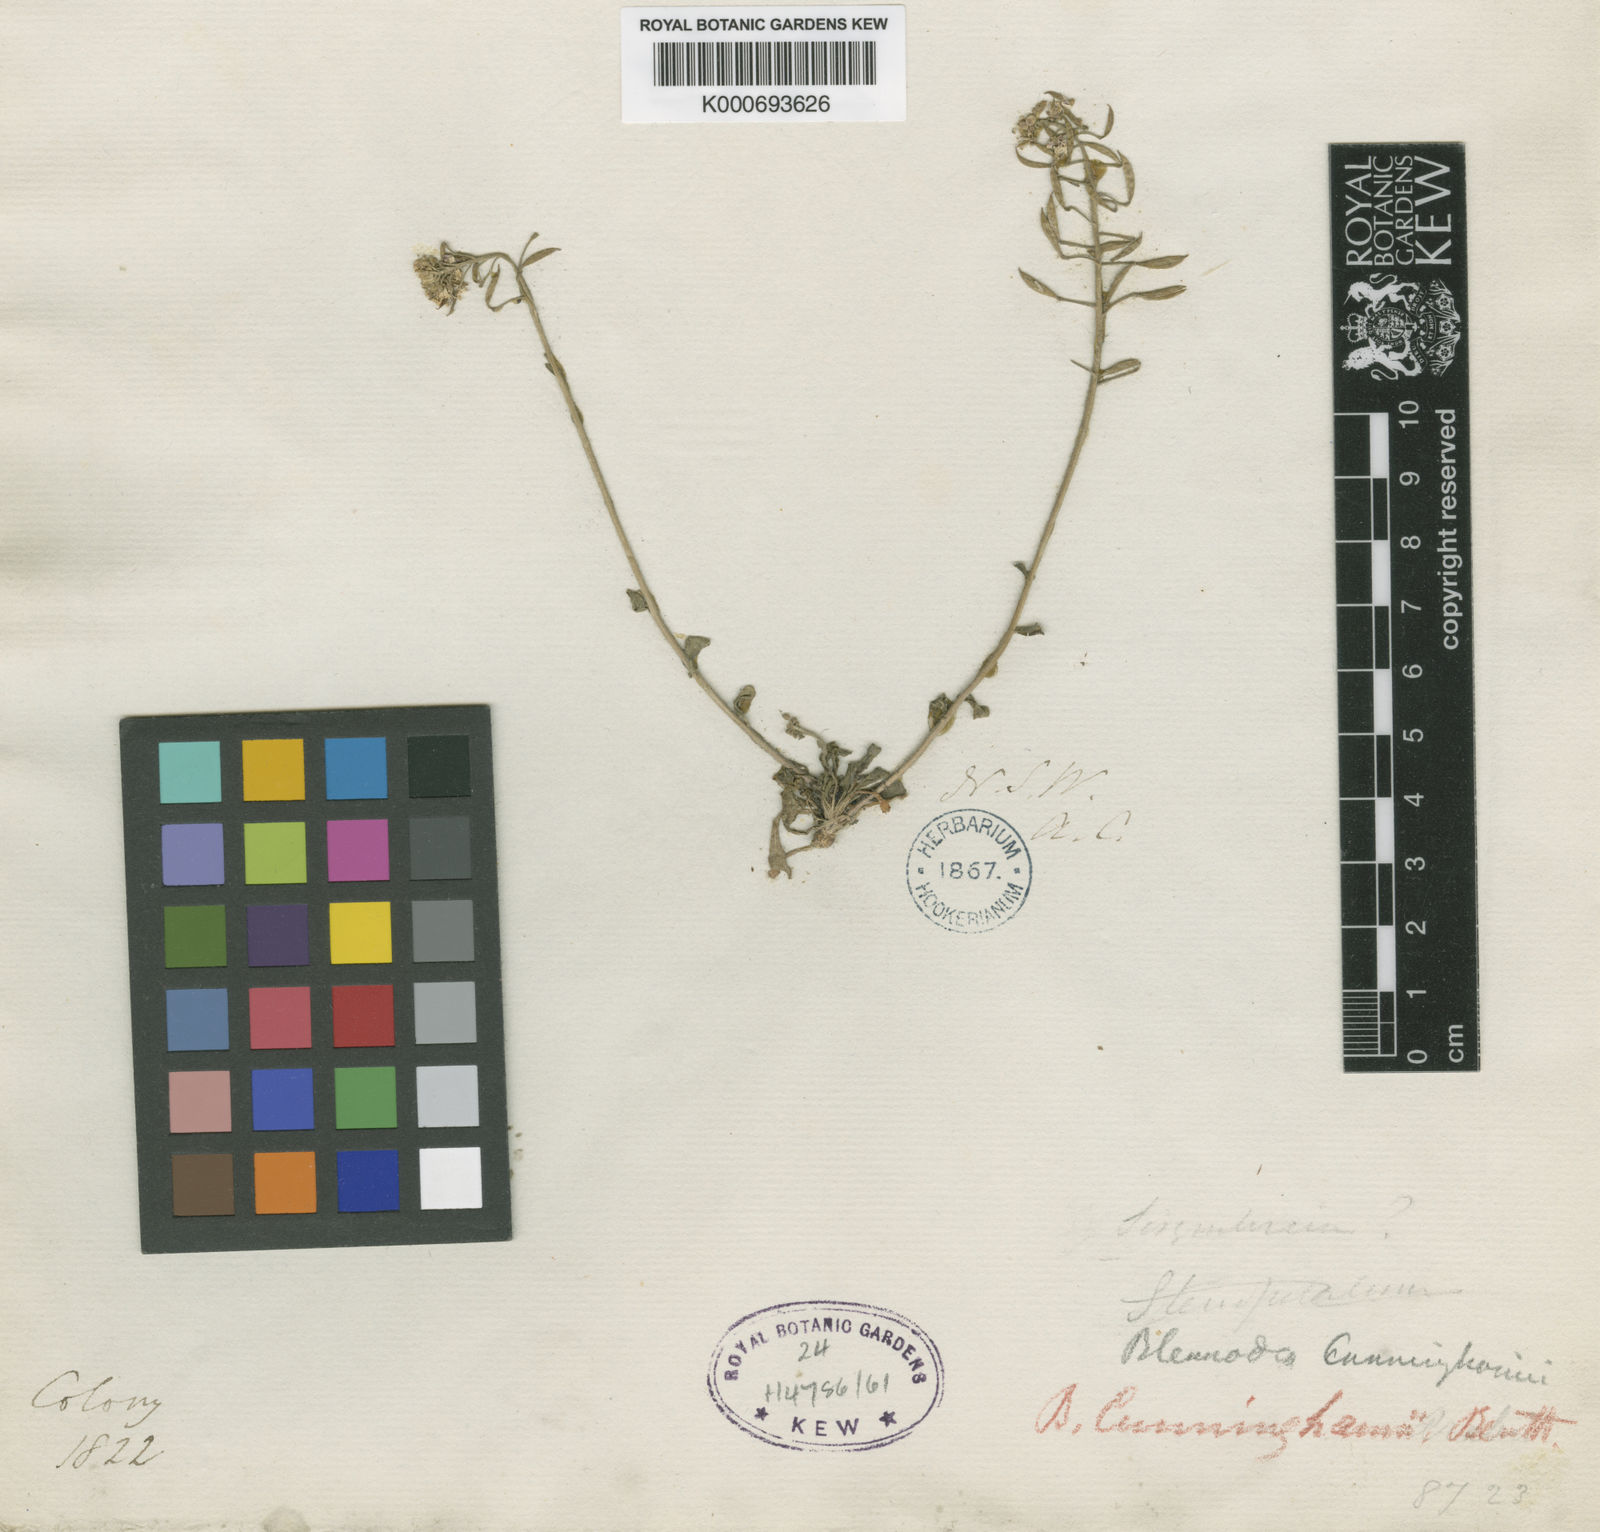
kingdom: Plantae
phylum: Tracheophyta
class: Magnoliopsida
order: Brassicales
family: Brassicaceae
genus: Harmsiodoxa
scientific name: Harmsiodoxa blennodioides
